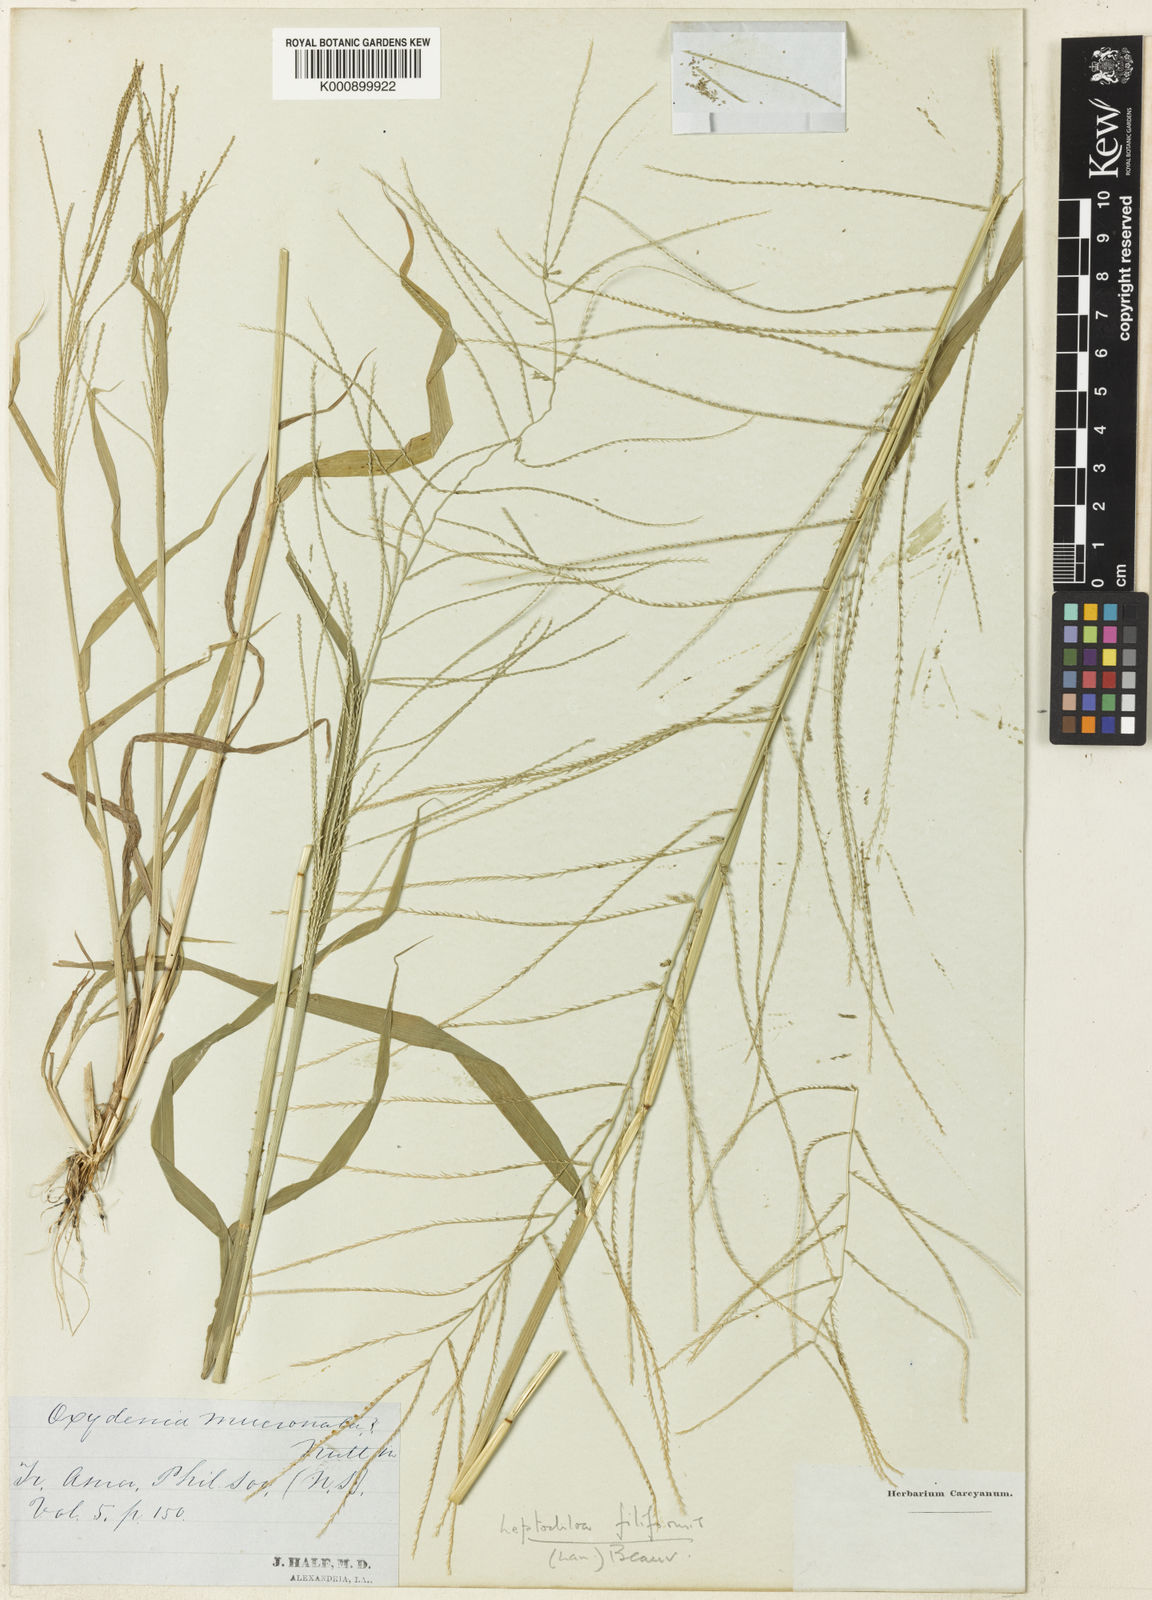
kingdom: Plantae
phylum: Tracheophyta
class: Liliopsida
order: Poales
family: Poaceae
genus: Leptochloa
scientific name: Leptochloa mucronata
